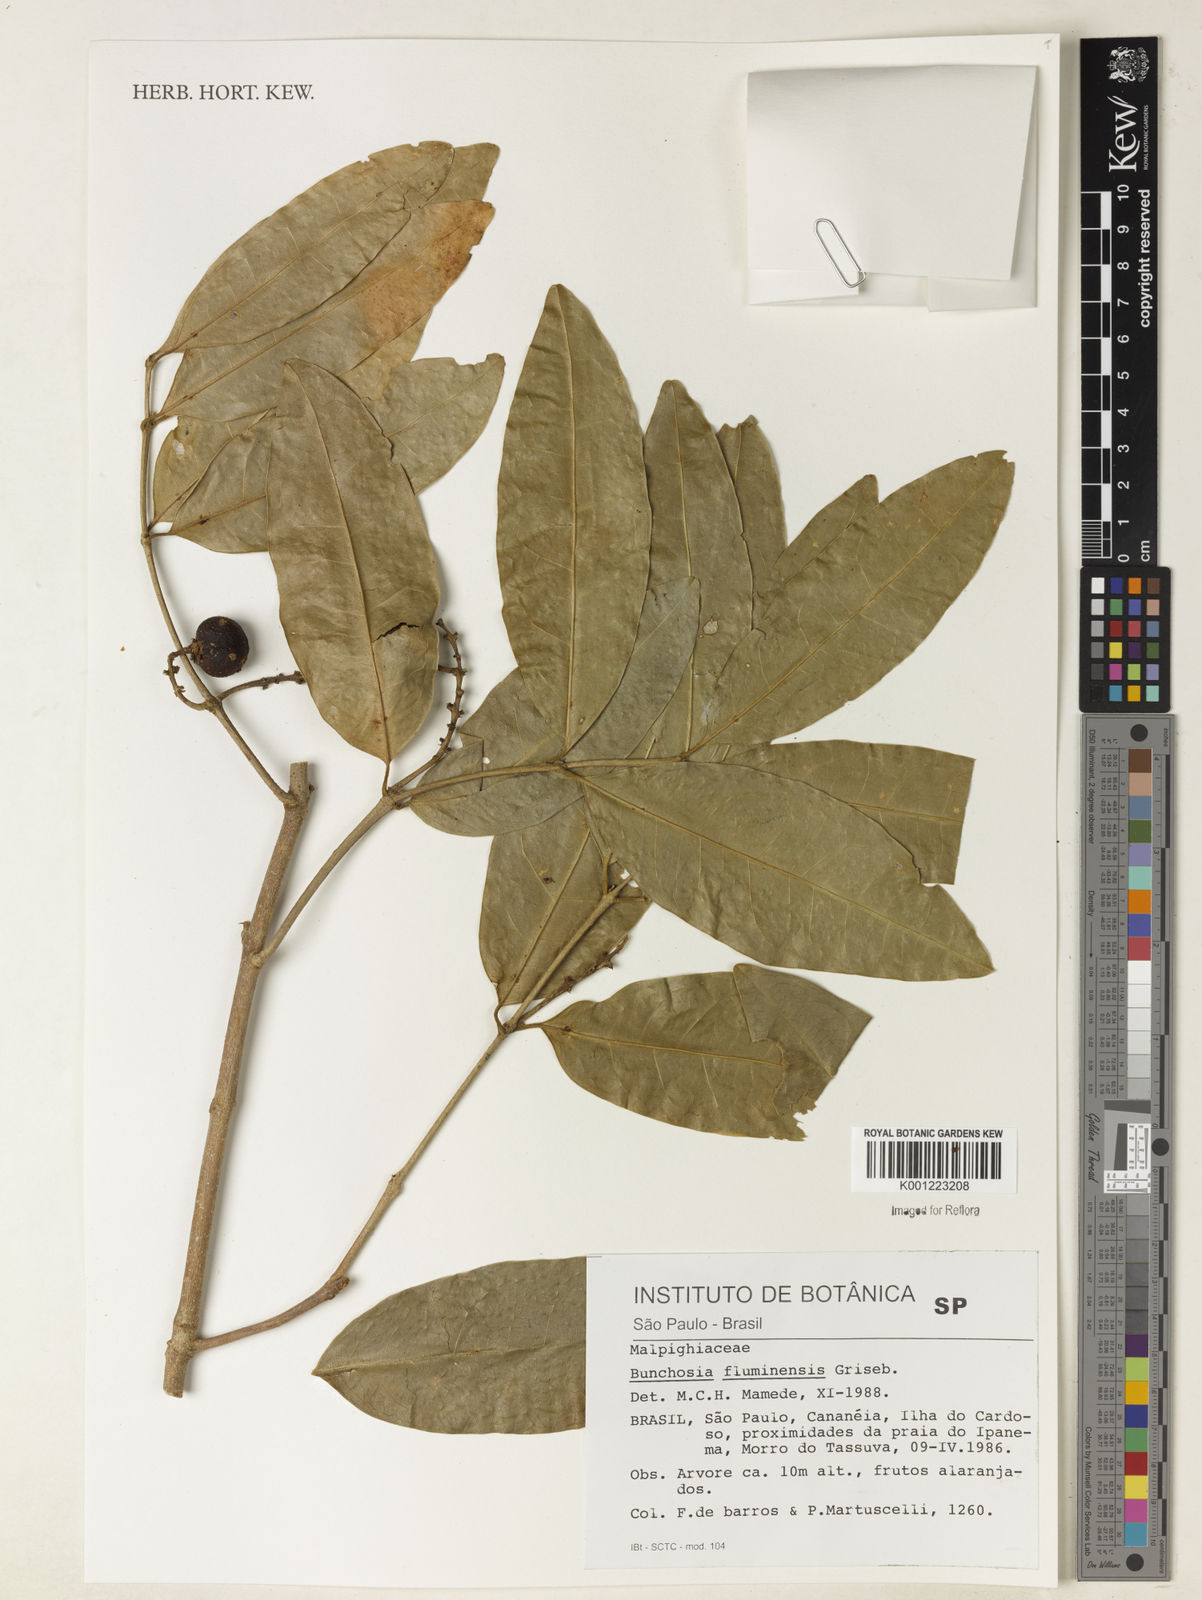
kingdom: Plantae
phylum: Tracheophyta
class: Magnoliopsida
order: Malpighiales
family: Malpighiaceae
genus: Bunchosia
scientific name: Bunchosia fluminensis
